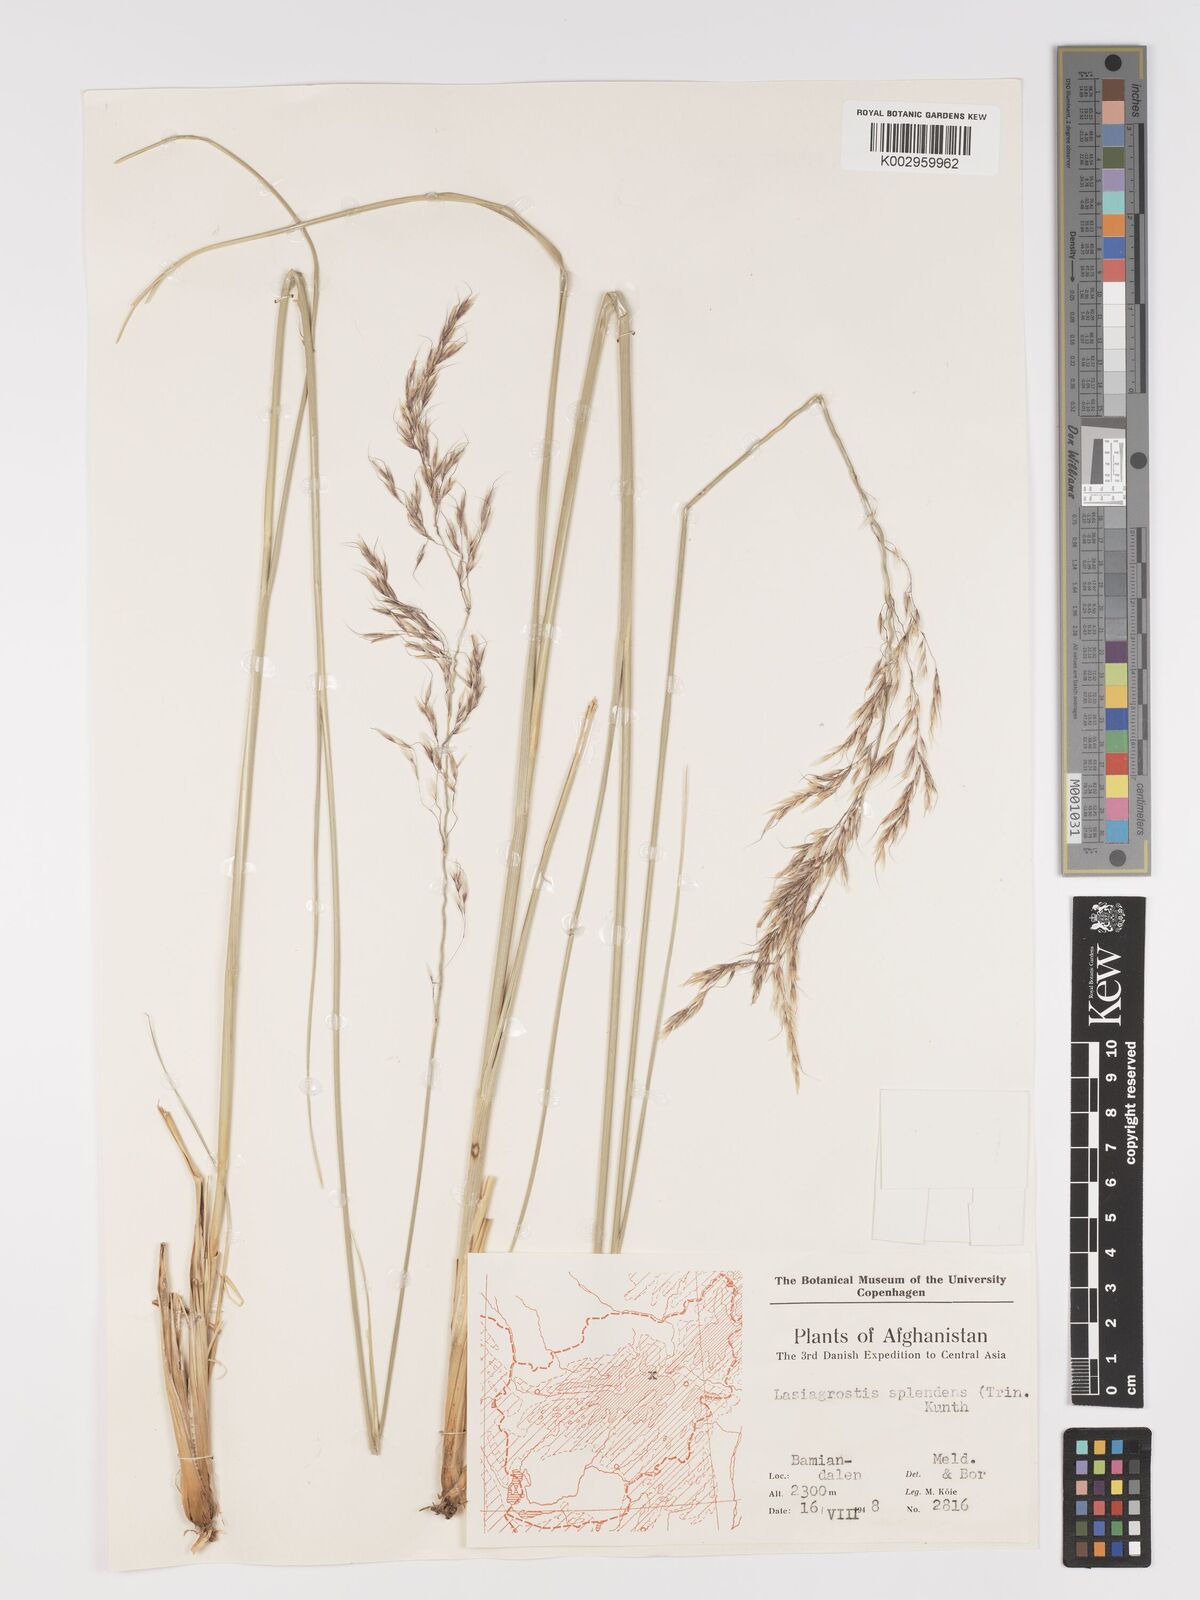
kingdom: Plantae
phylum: Tracheophyta
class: Liliopsida
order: Poales
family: Poaceae
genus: Neotrinia
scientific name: Neotrinia splendens
